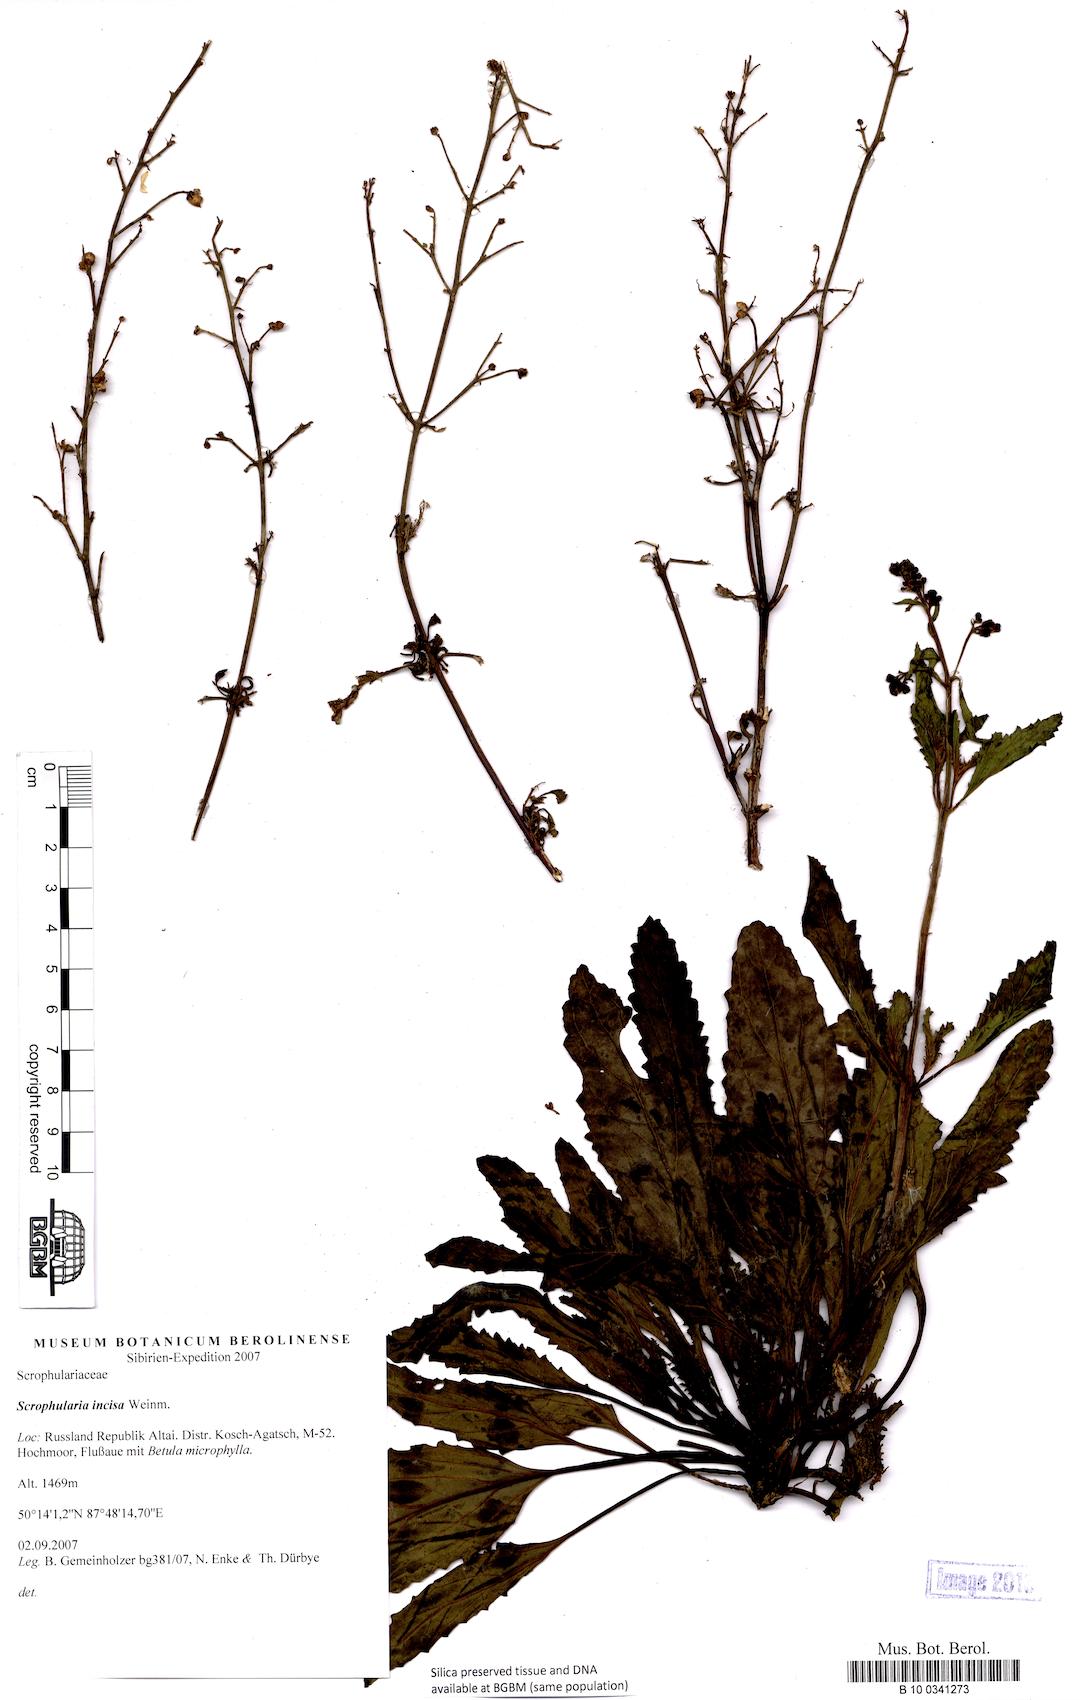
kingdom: Plantae
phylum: Tracheophyta
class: Magnoliopsida
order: Lamiales
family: Scrophulariaceae
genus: Scrophularia
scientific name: Scrophularia incisa
